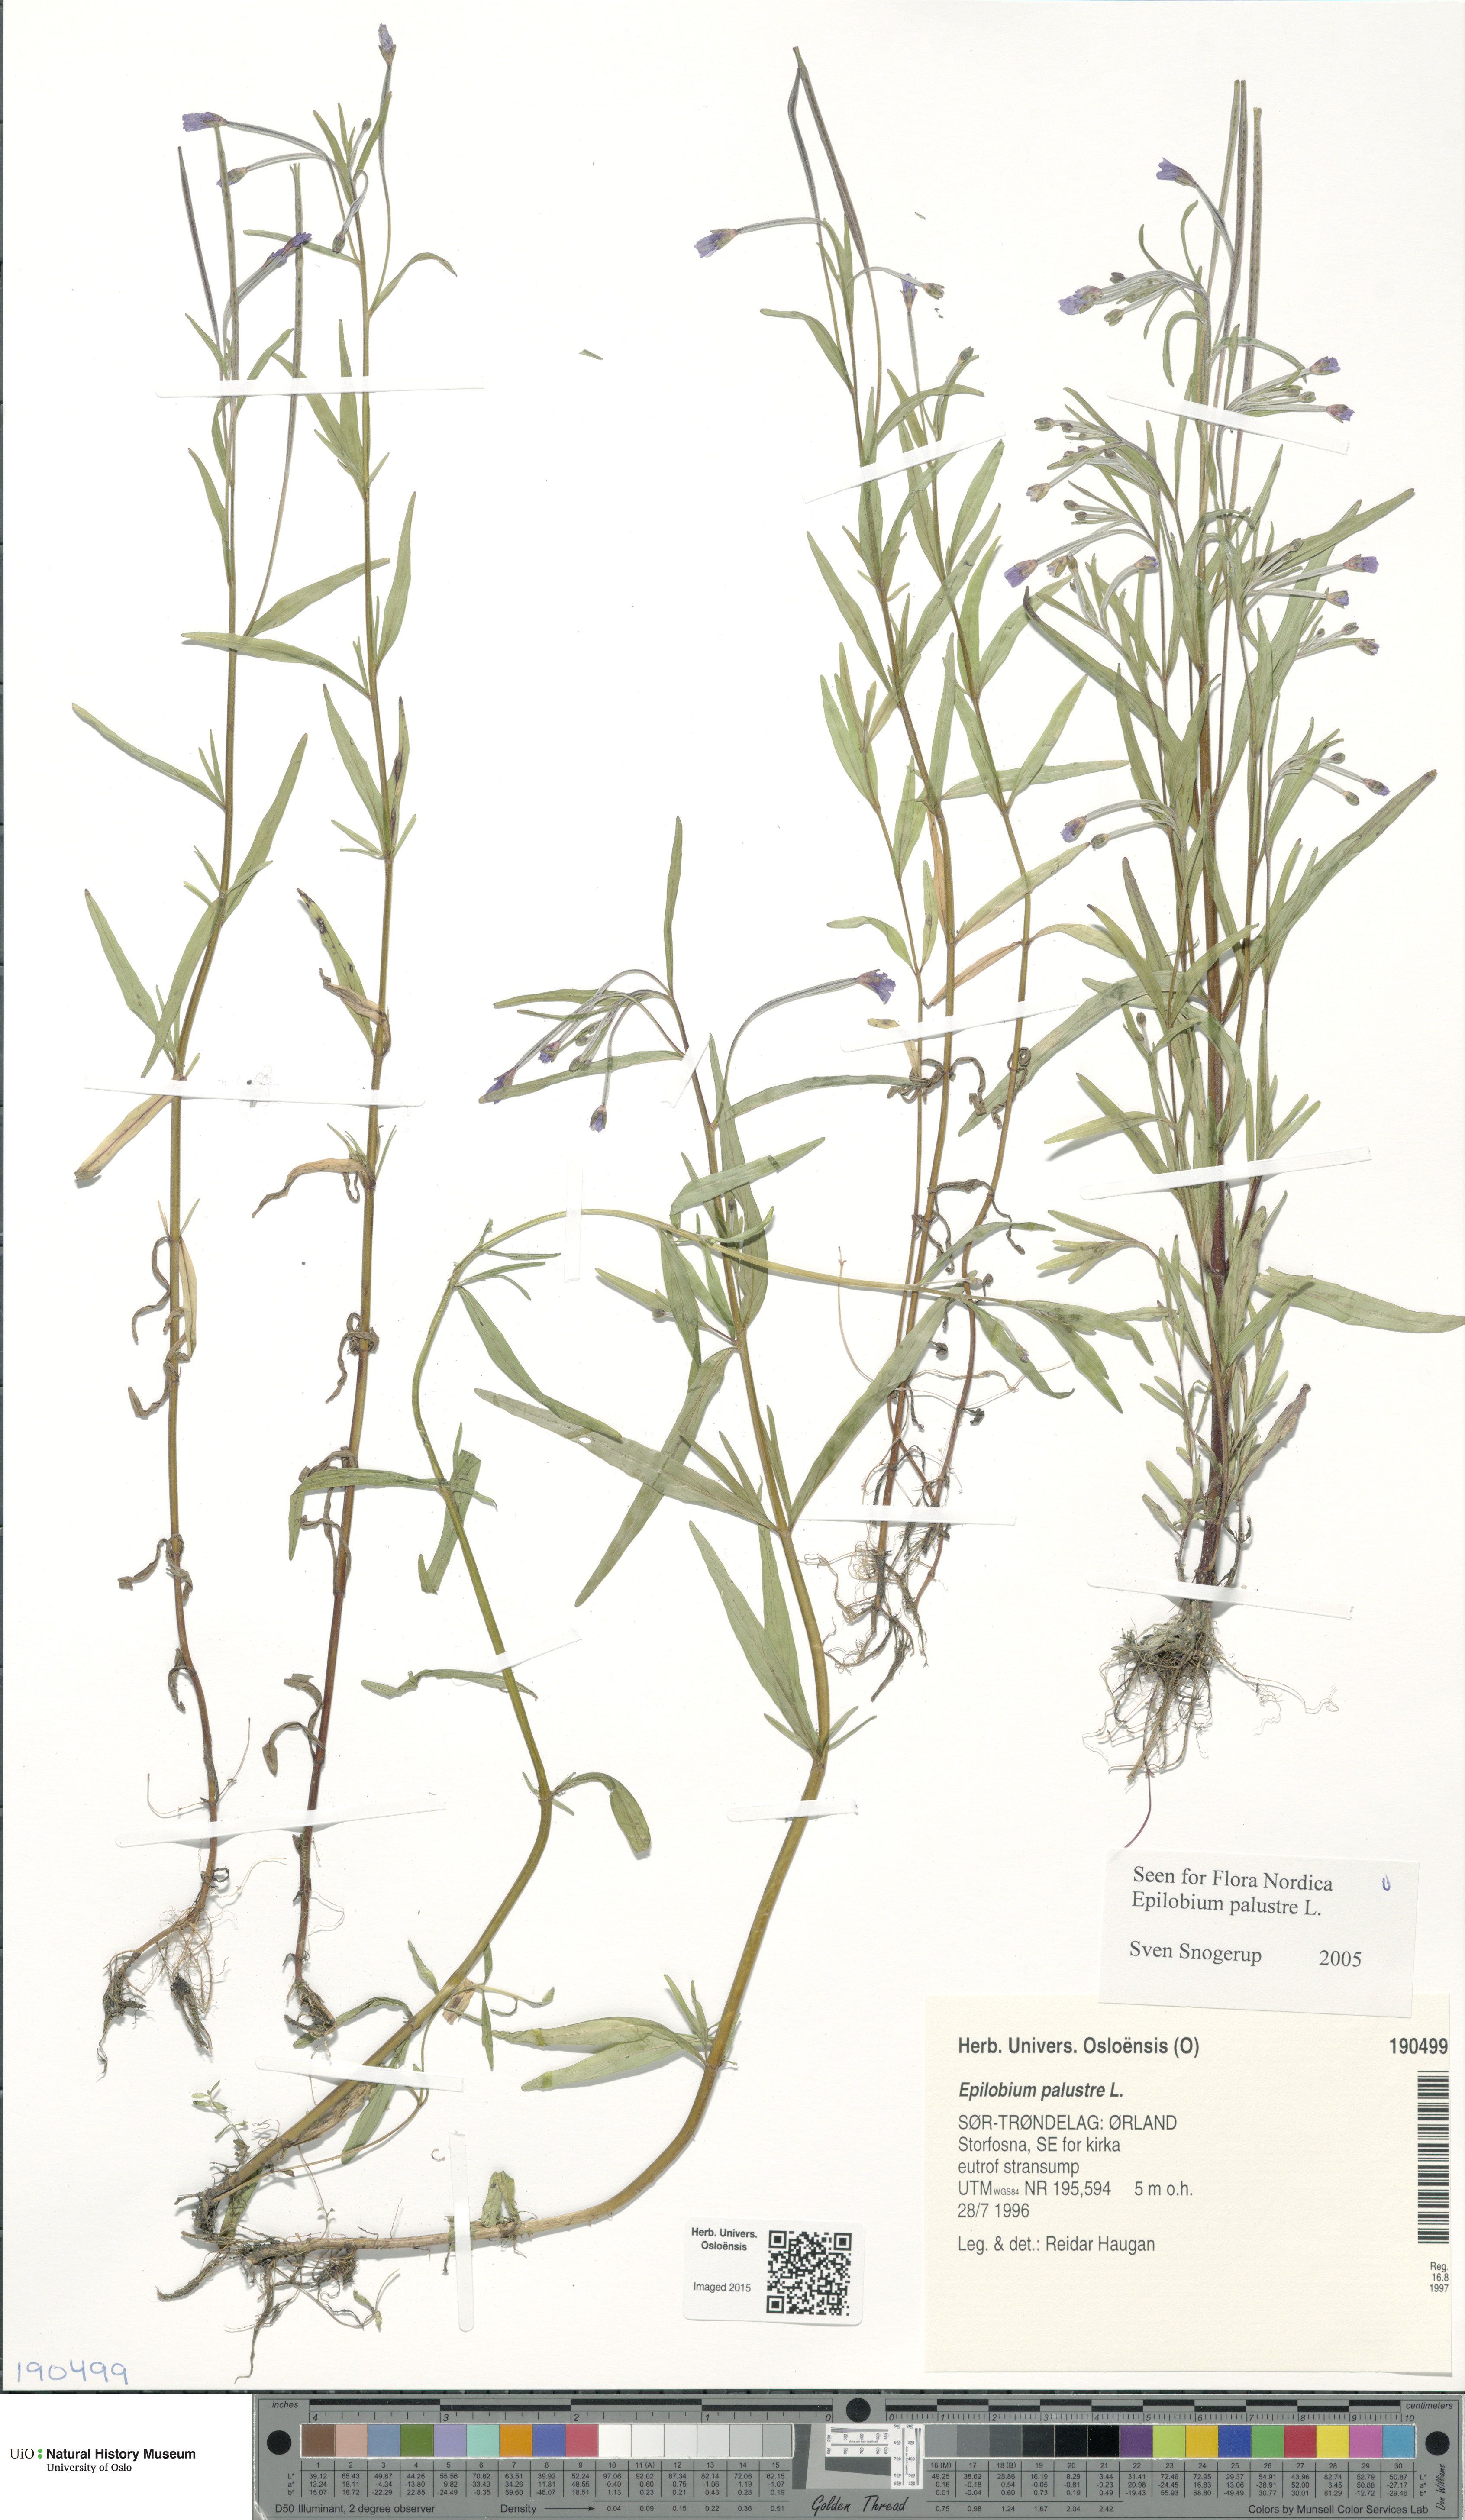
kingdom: Plantae
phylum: Tracheophyta
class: Magnoliopsida
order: Myrtales
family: Onagraceae
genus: Epilobium
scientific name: Epilobium palustre
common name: Marsh willowherb
